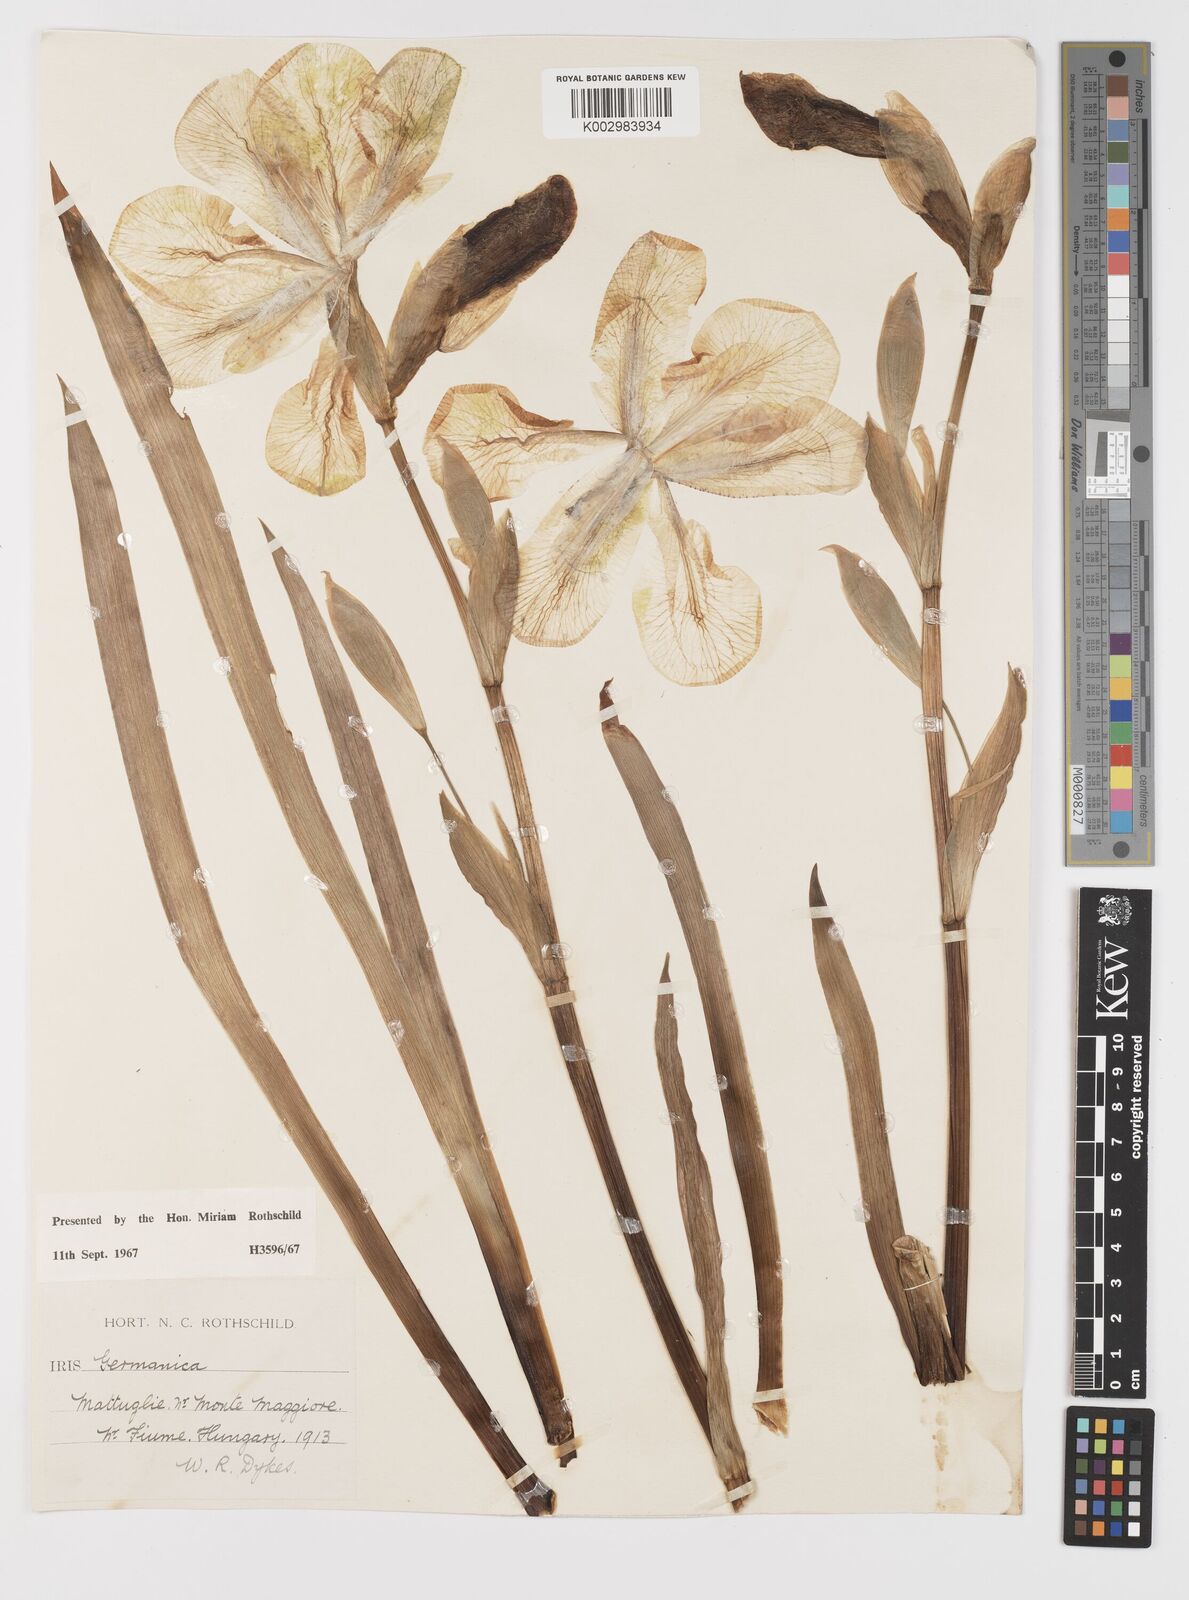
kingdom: Plantae
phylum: Tracheophyta
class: Liliopsida
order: Asparagales
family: Iridaceae
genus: Iris
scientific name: Iris germanica
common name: German iris
